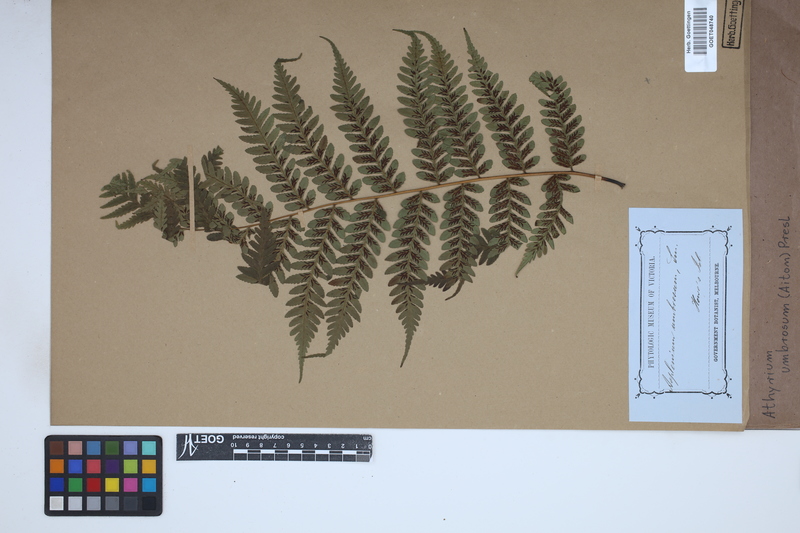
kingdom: Plantae
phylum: Tracheophyta
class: Polypodiopsida
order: Polypodiales
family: Athyriaceae
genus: Diplazium
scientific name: Diplazium caudatum
